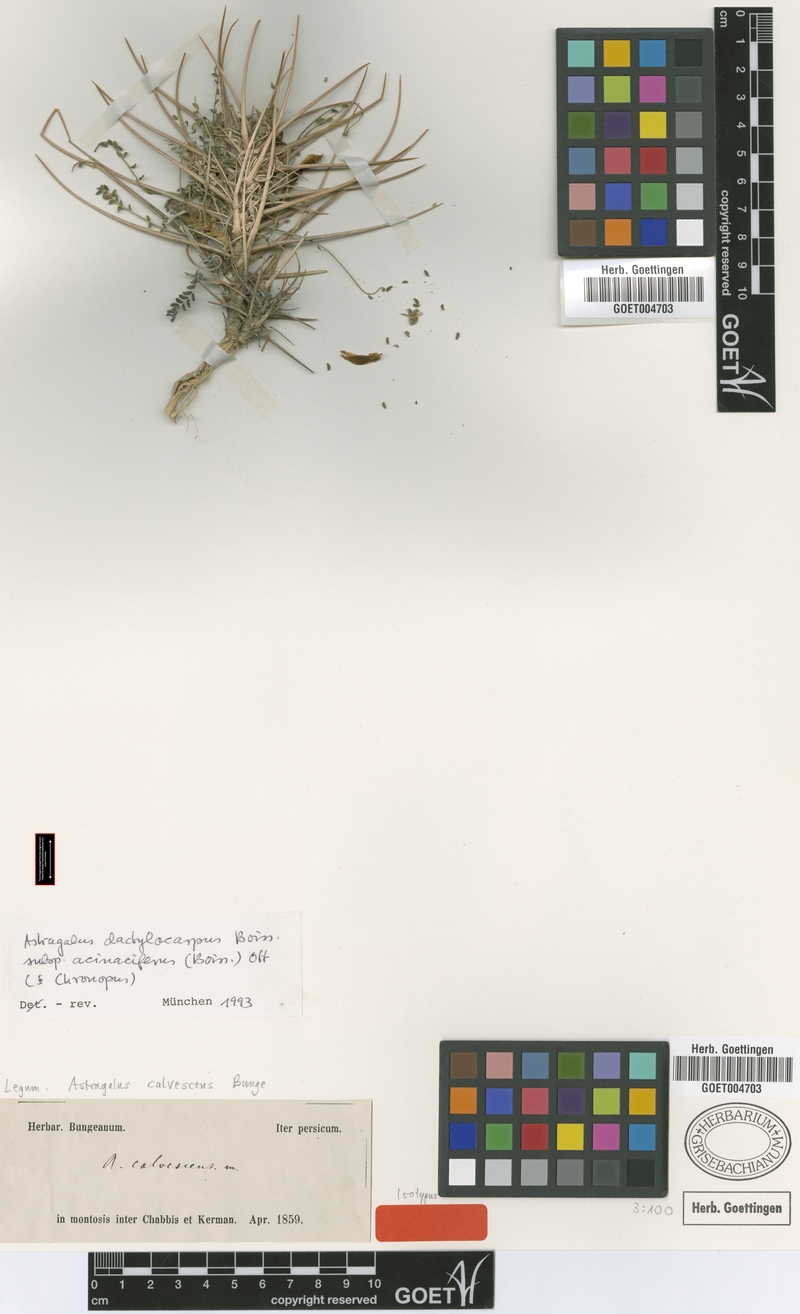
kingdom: Plantae
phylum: Tracheophyta
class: Magnoliopsida
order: Fabales
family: Fabaceae
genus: Astragalus
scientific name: Astragalus dactylocarpus
